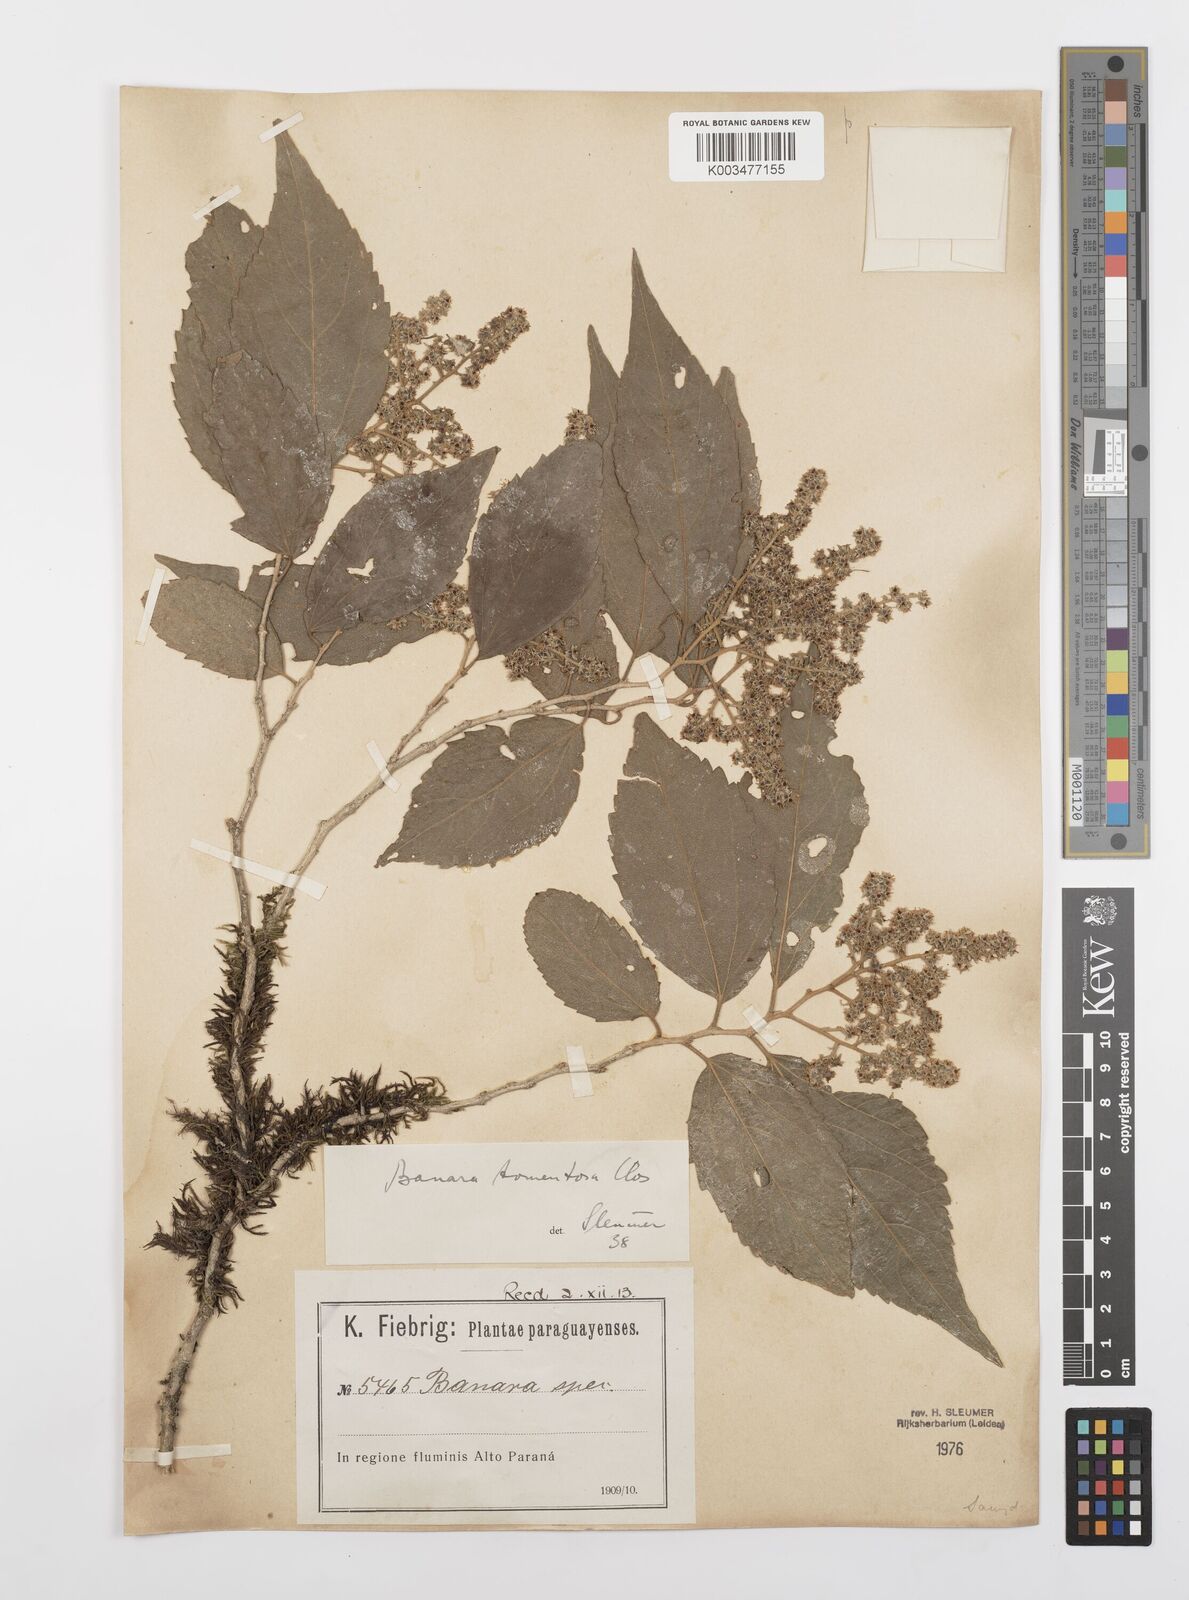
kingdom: Plantae
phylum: Tracheophyta
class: Magnoliopsida
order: Malpighiales
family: Salicaceae
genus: Banara
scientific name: Banara tomentosa
